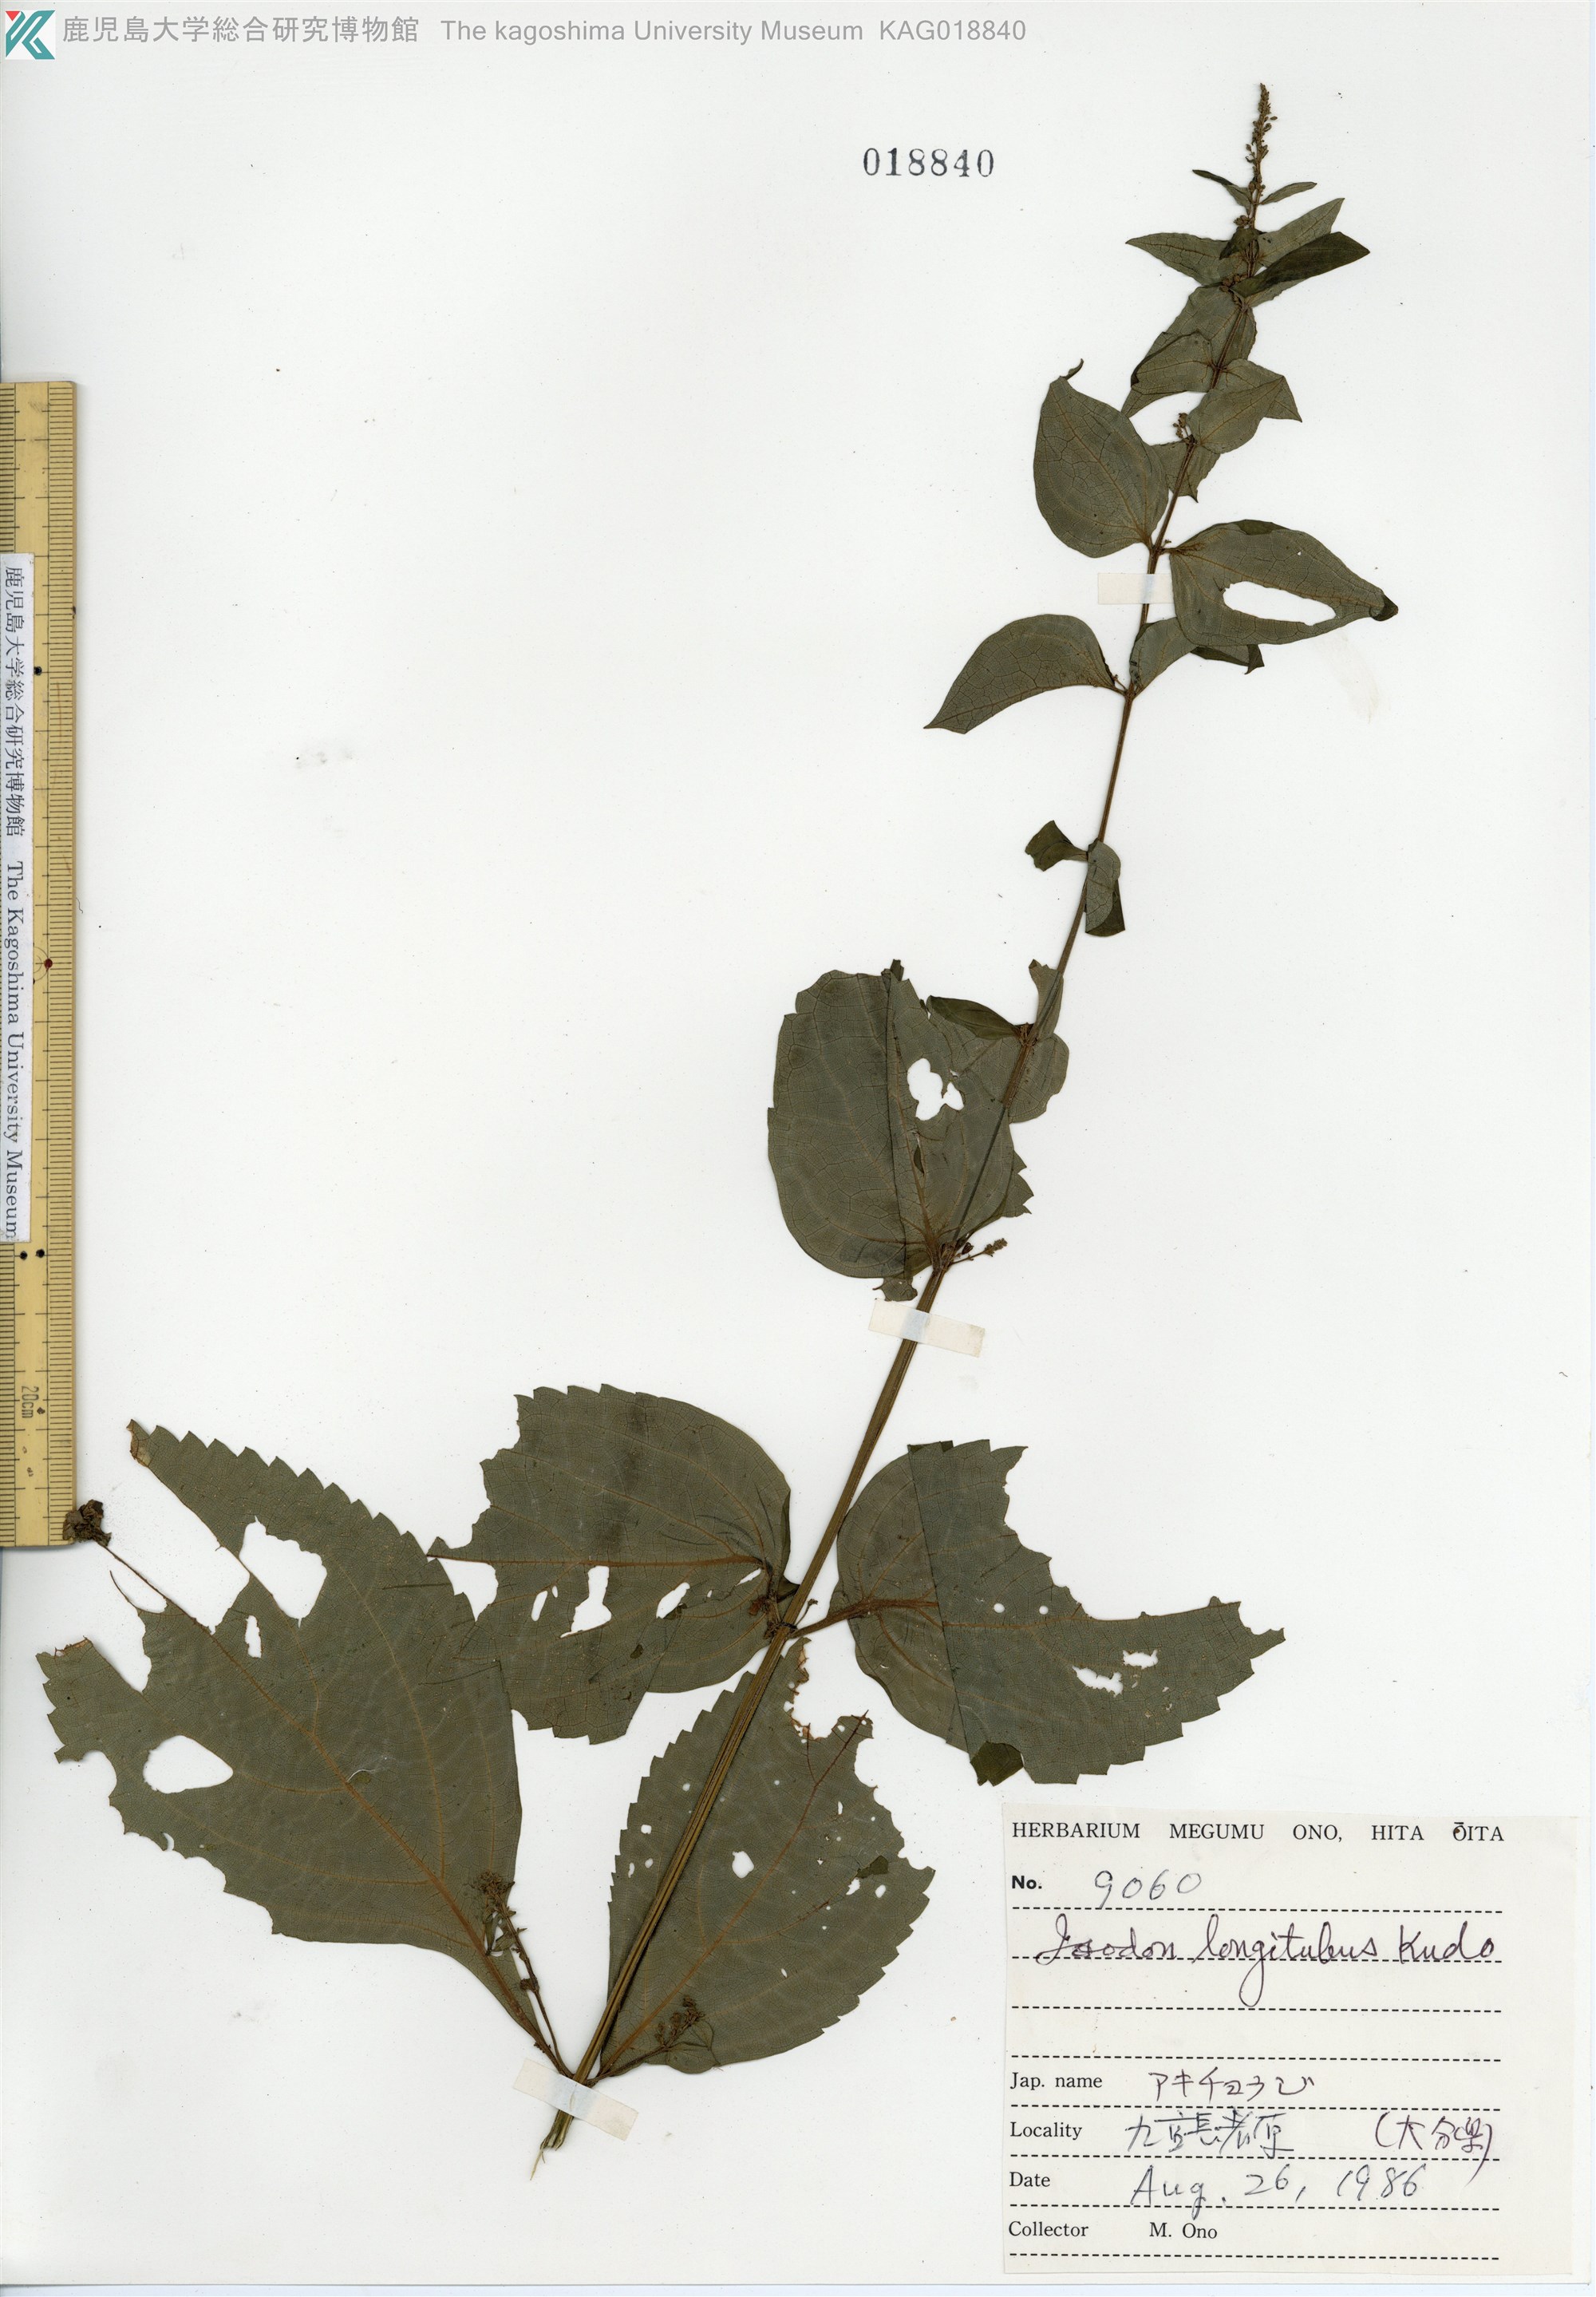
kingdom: Plantae
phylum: Tracheophyta
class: Magnoliopsida
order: Lamiales
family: Lamiaceae
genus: Isodon
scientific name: Isodon longitubus
